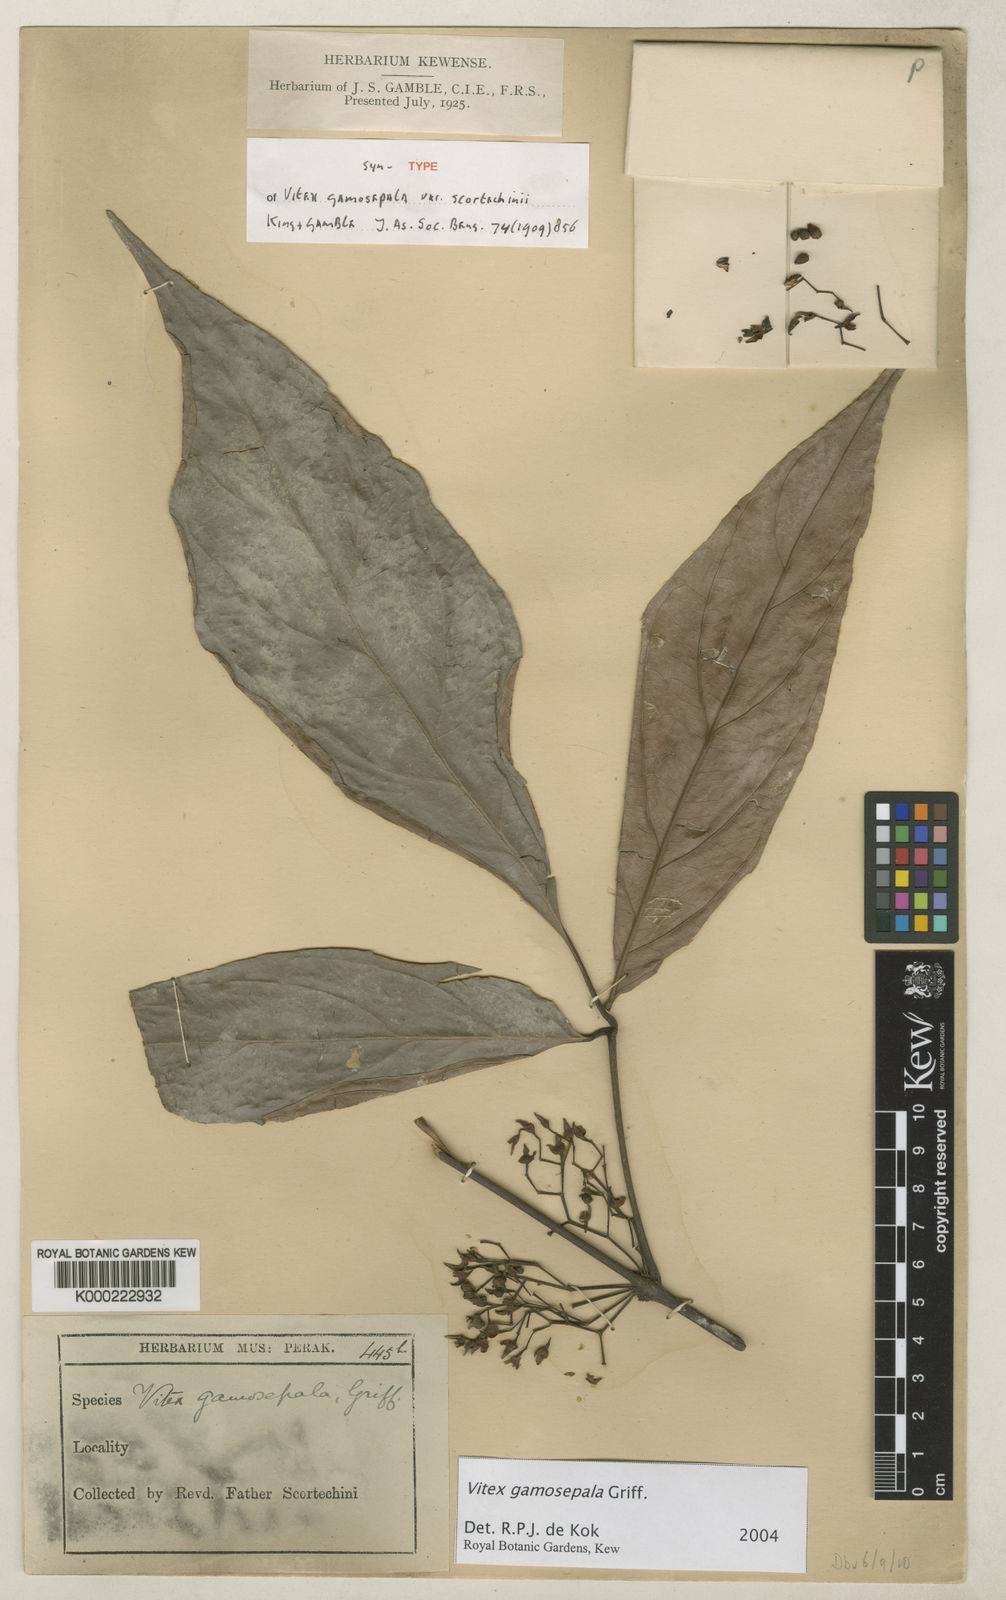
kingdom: Plantae
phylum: Tracheophyta
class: Magnoliopsida
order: Lamiales
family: Lamiaceae
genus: Vitex
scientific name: Vitex gamosepala
